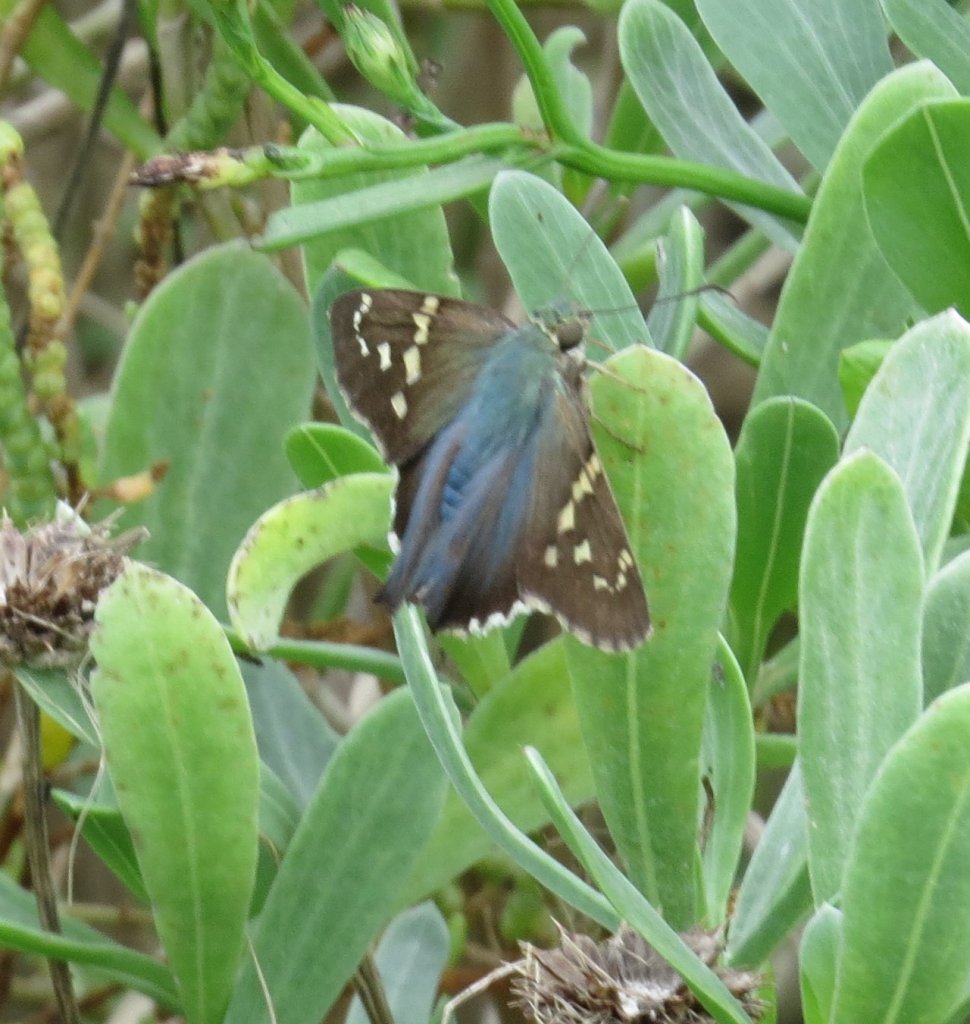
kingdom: Animalia
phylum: Arthropoda
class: Insecta
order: Lepidoptera
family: Hesperiidae
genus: Urbanus
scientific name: Urbanus proteus
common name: Long-tailed Skipper
